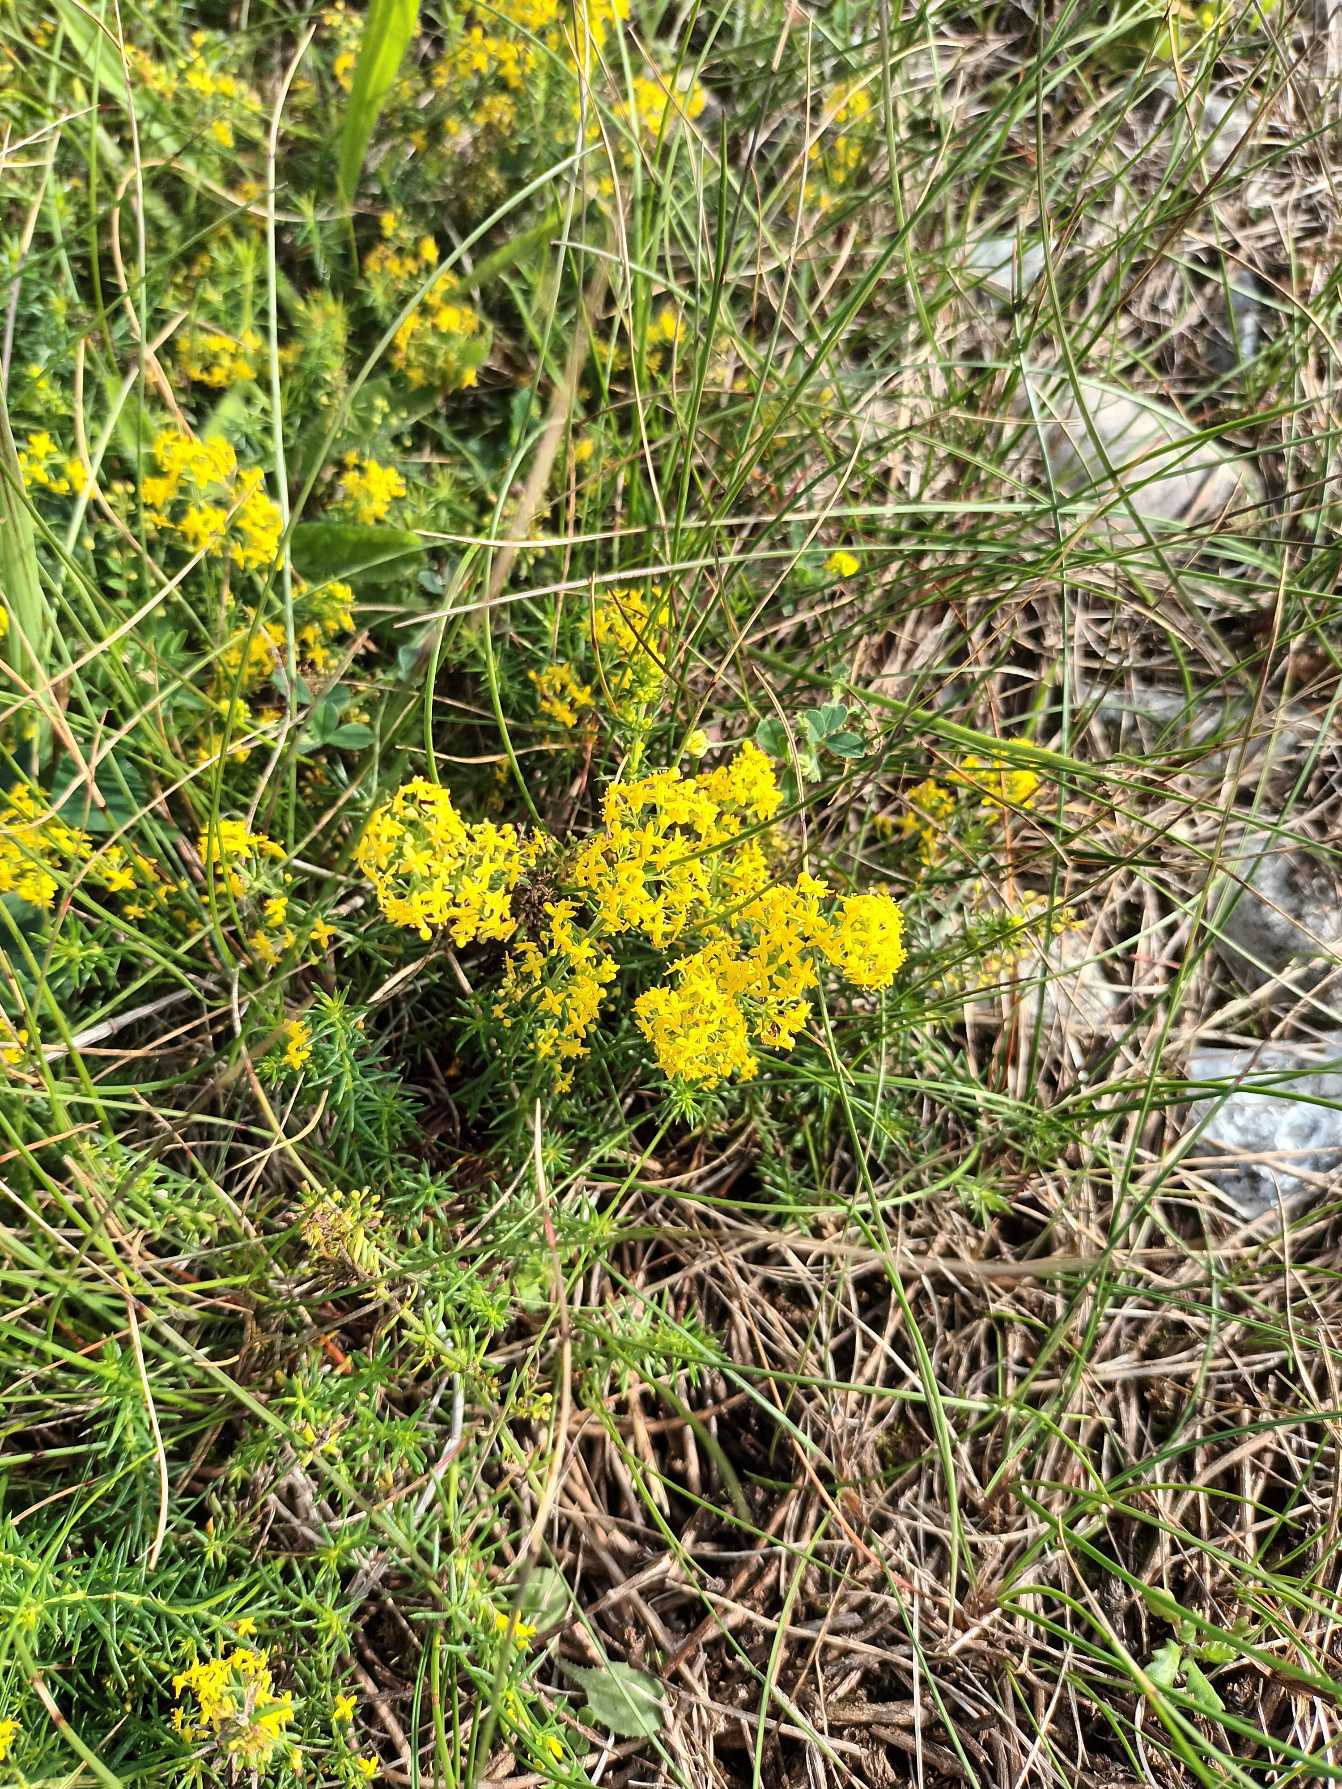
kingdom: Plantae
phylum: Tracheophyta
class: Magnoliopsida
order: Gentianales
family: Rubiaceae
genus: Galium
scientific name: Galium verum
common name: Gul snerre
